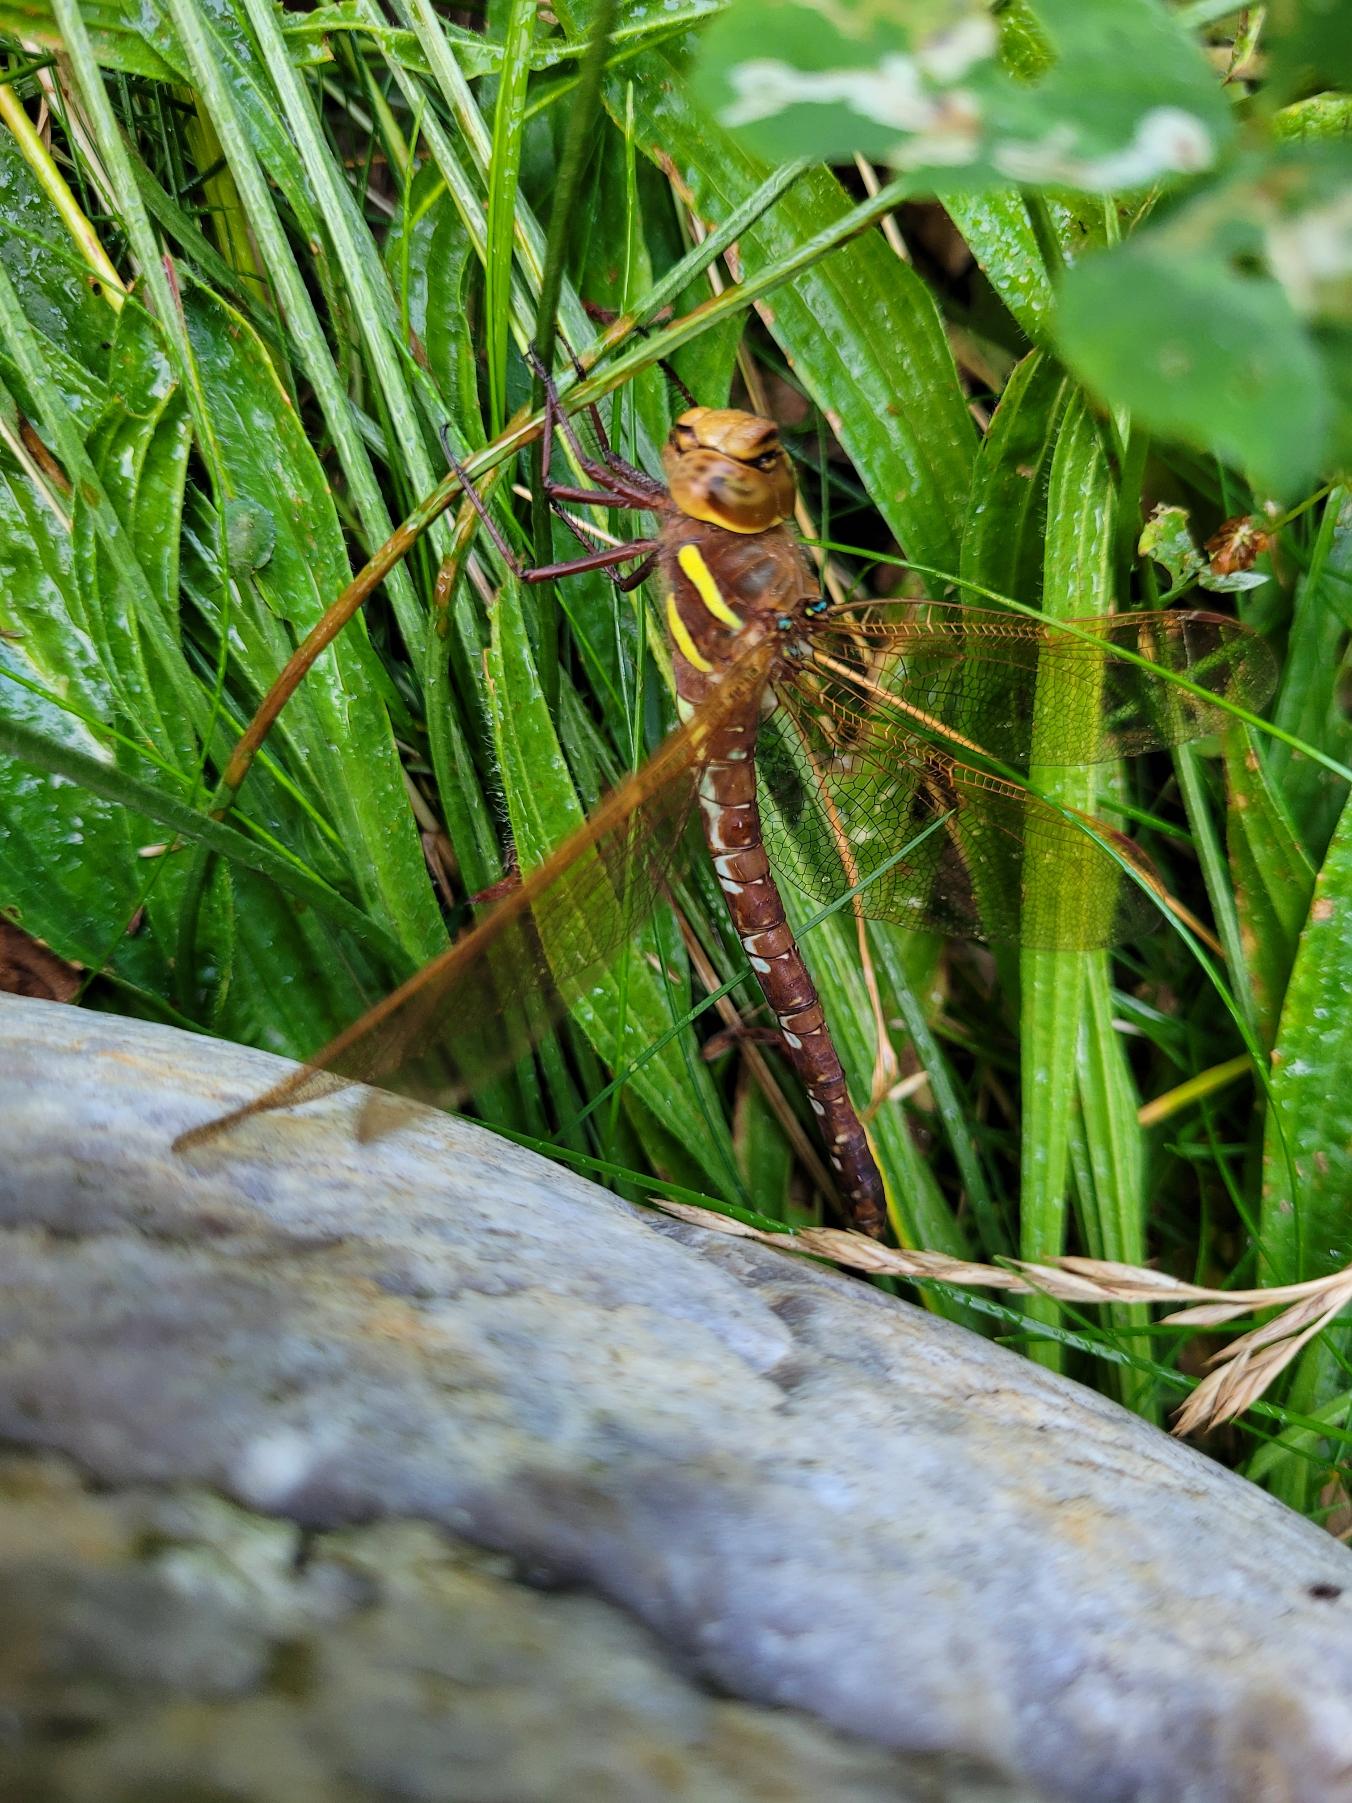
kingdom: Animalia
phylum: Arthropoda
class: Insecta
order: Odonata
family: Aeshnidae
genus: Aeshna
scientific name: Aeshna grandis
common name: Brun mosaikguldsmed
